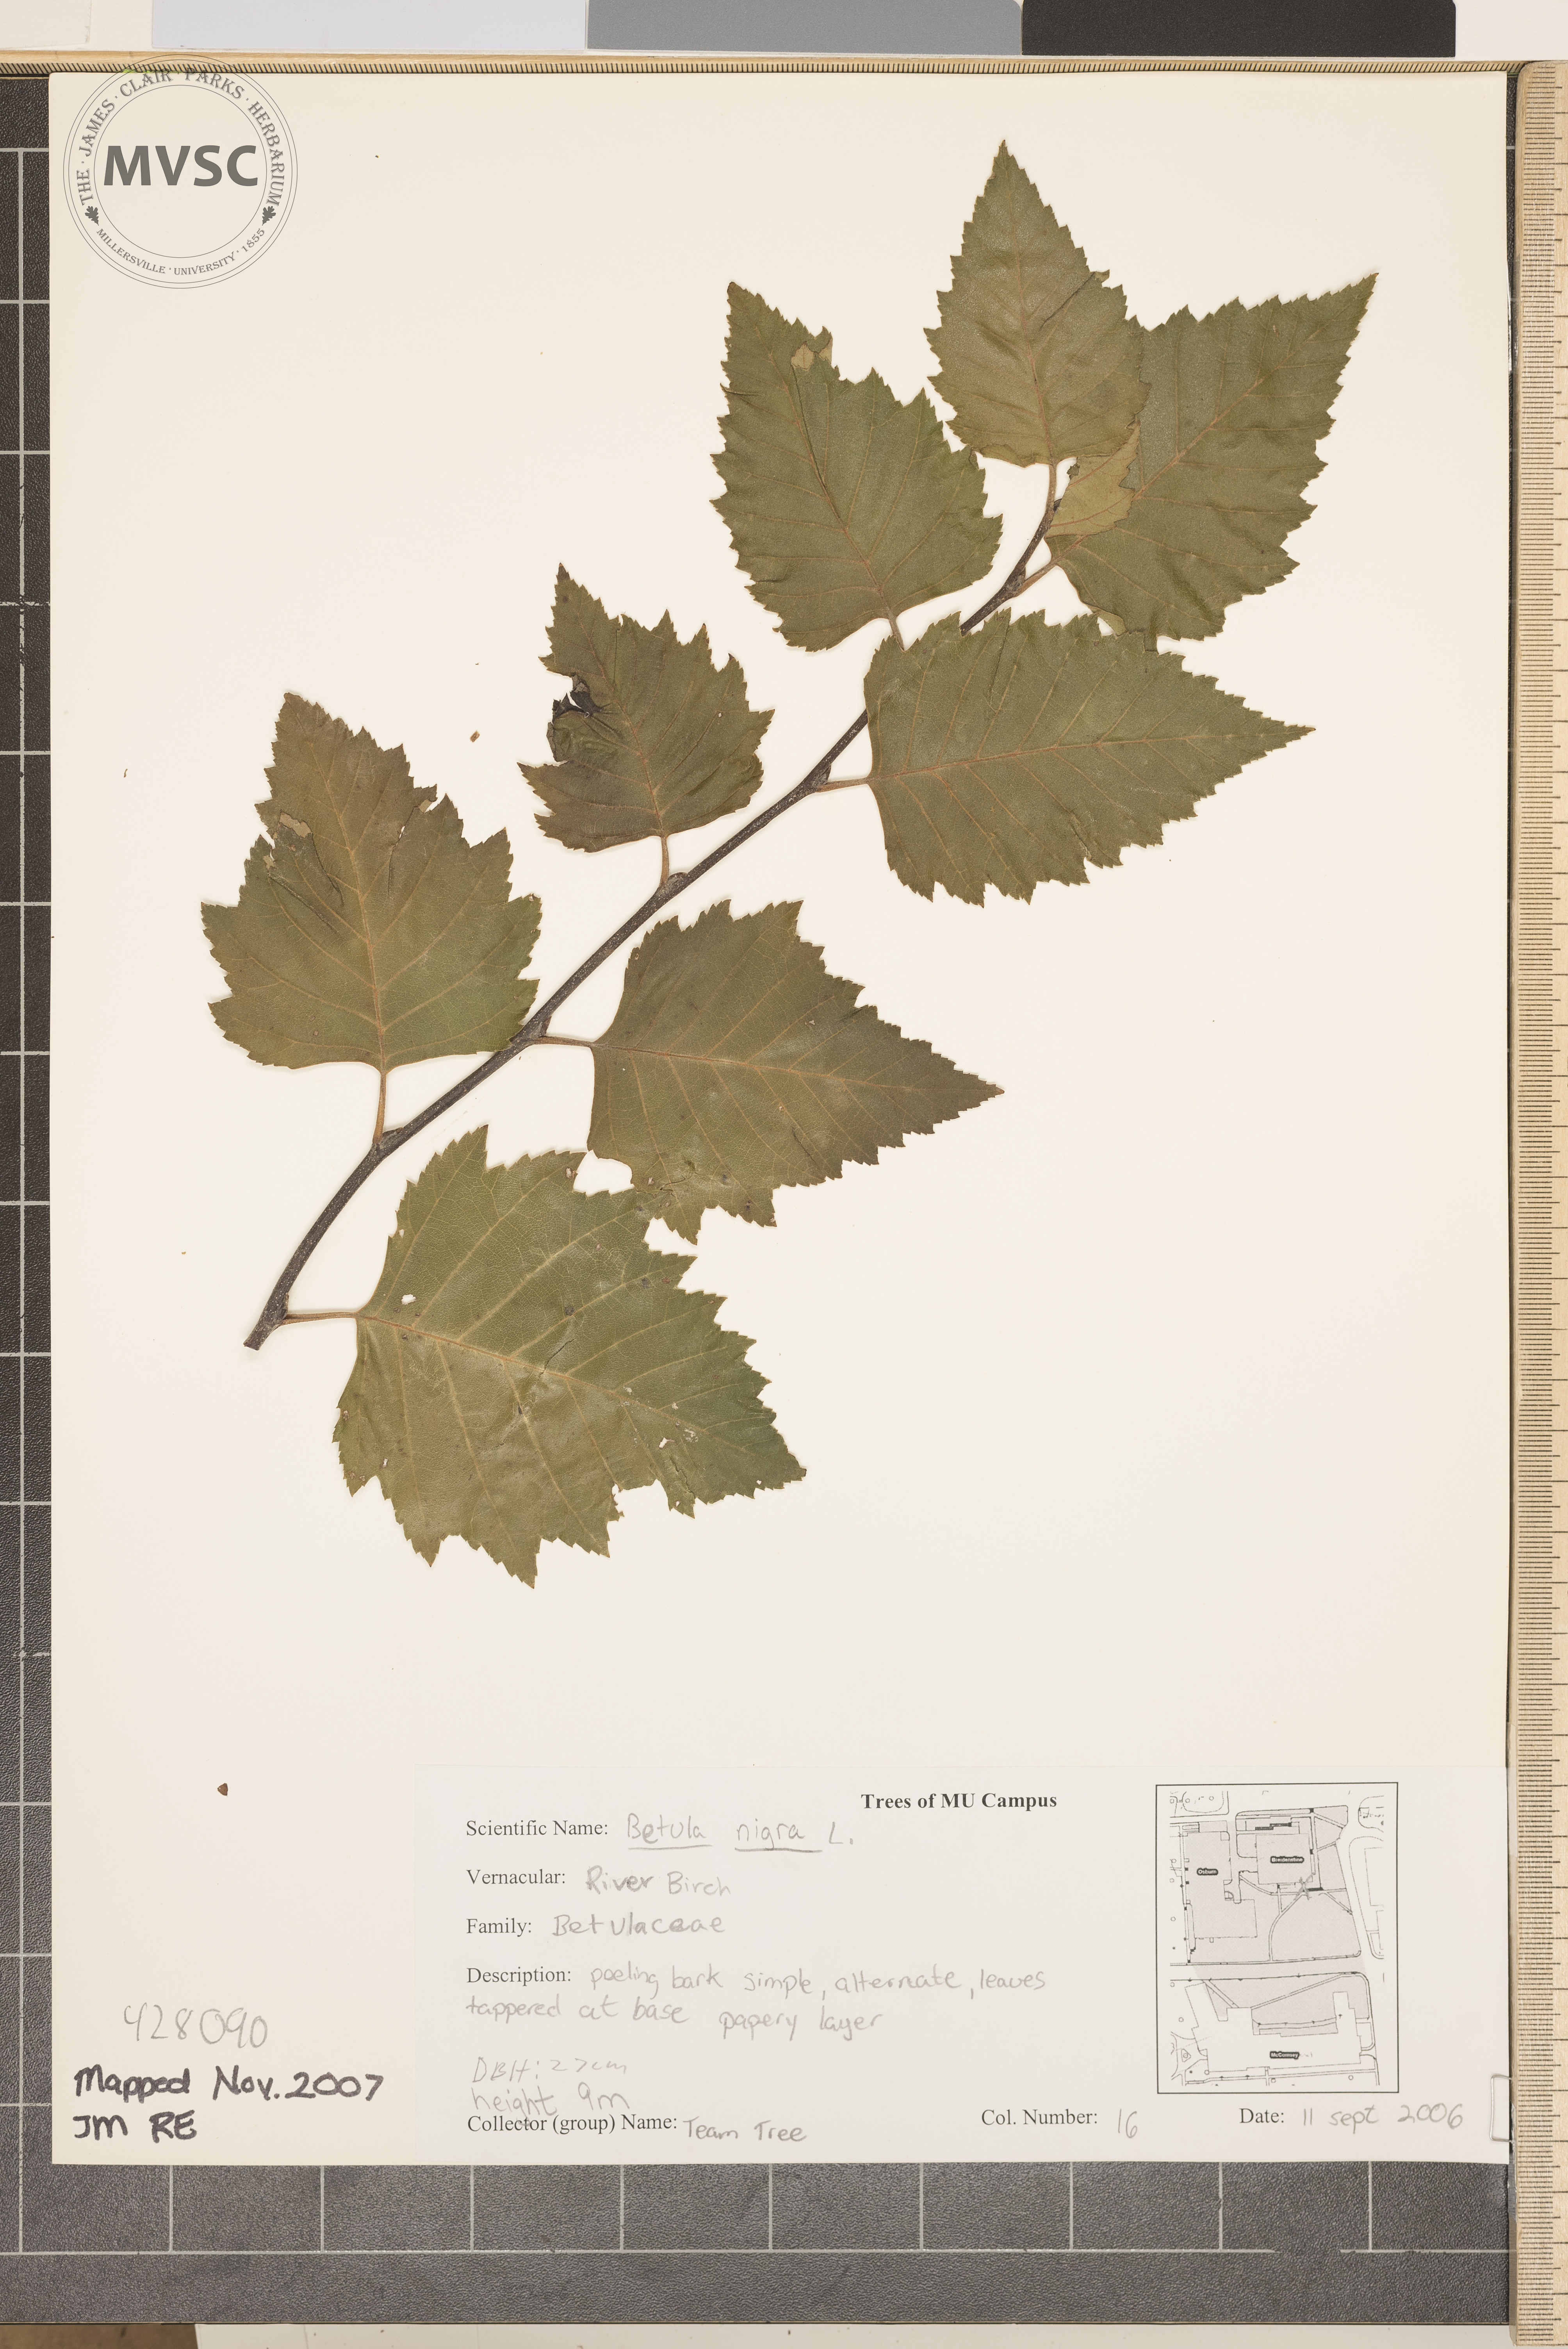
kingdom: Plantae
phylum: Tracheophyta
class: Magnoliopsida
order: Fagales
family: Betulaceae
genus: Betula
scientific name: Betula nigra
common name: River Birch
